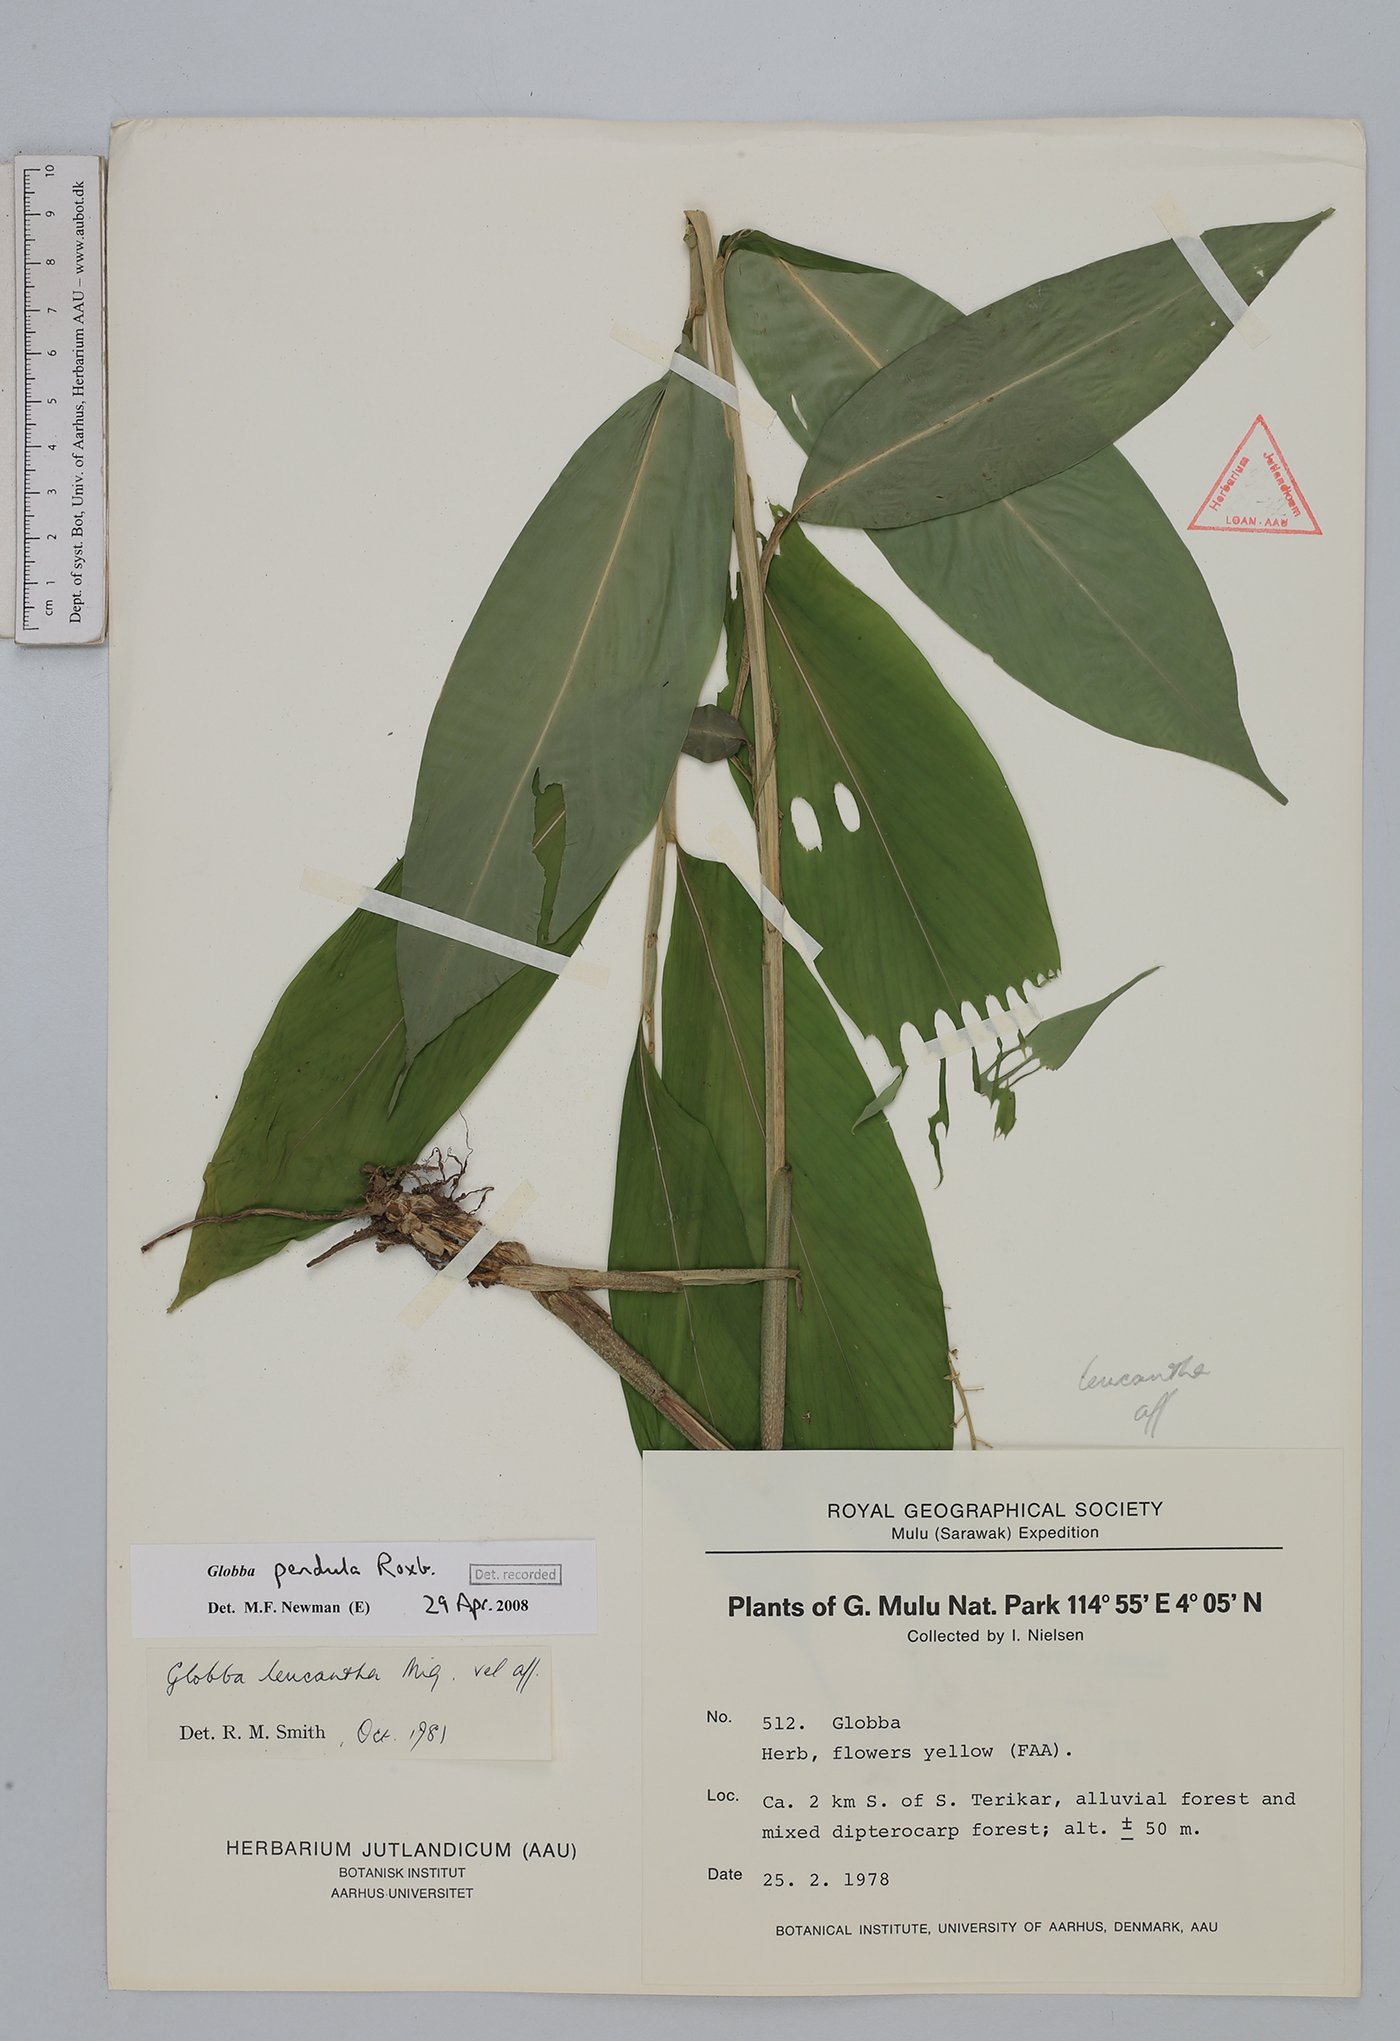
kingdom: Plantae
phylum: Tracheophyta
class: Liliopsida
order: Zingiberales
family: Zingiberaceae
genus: Globba
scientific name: Globba pendula
